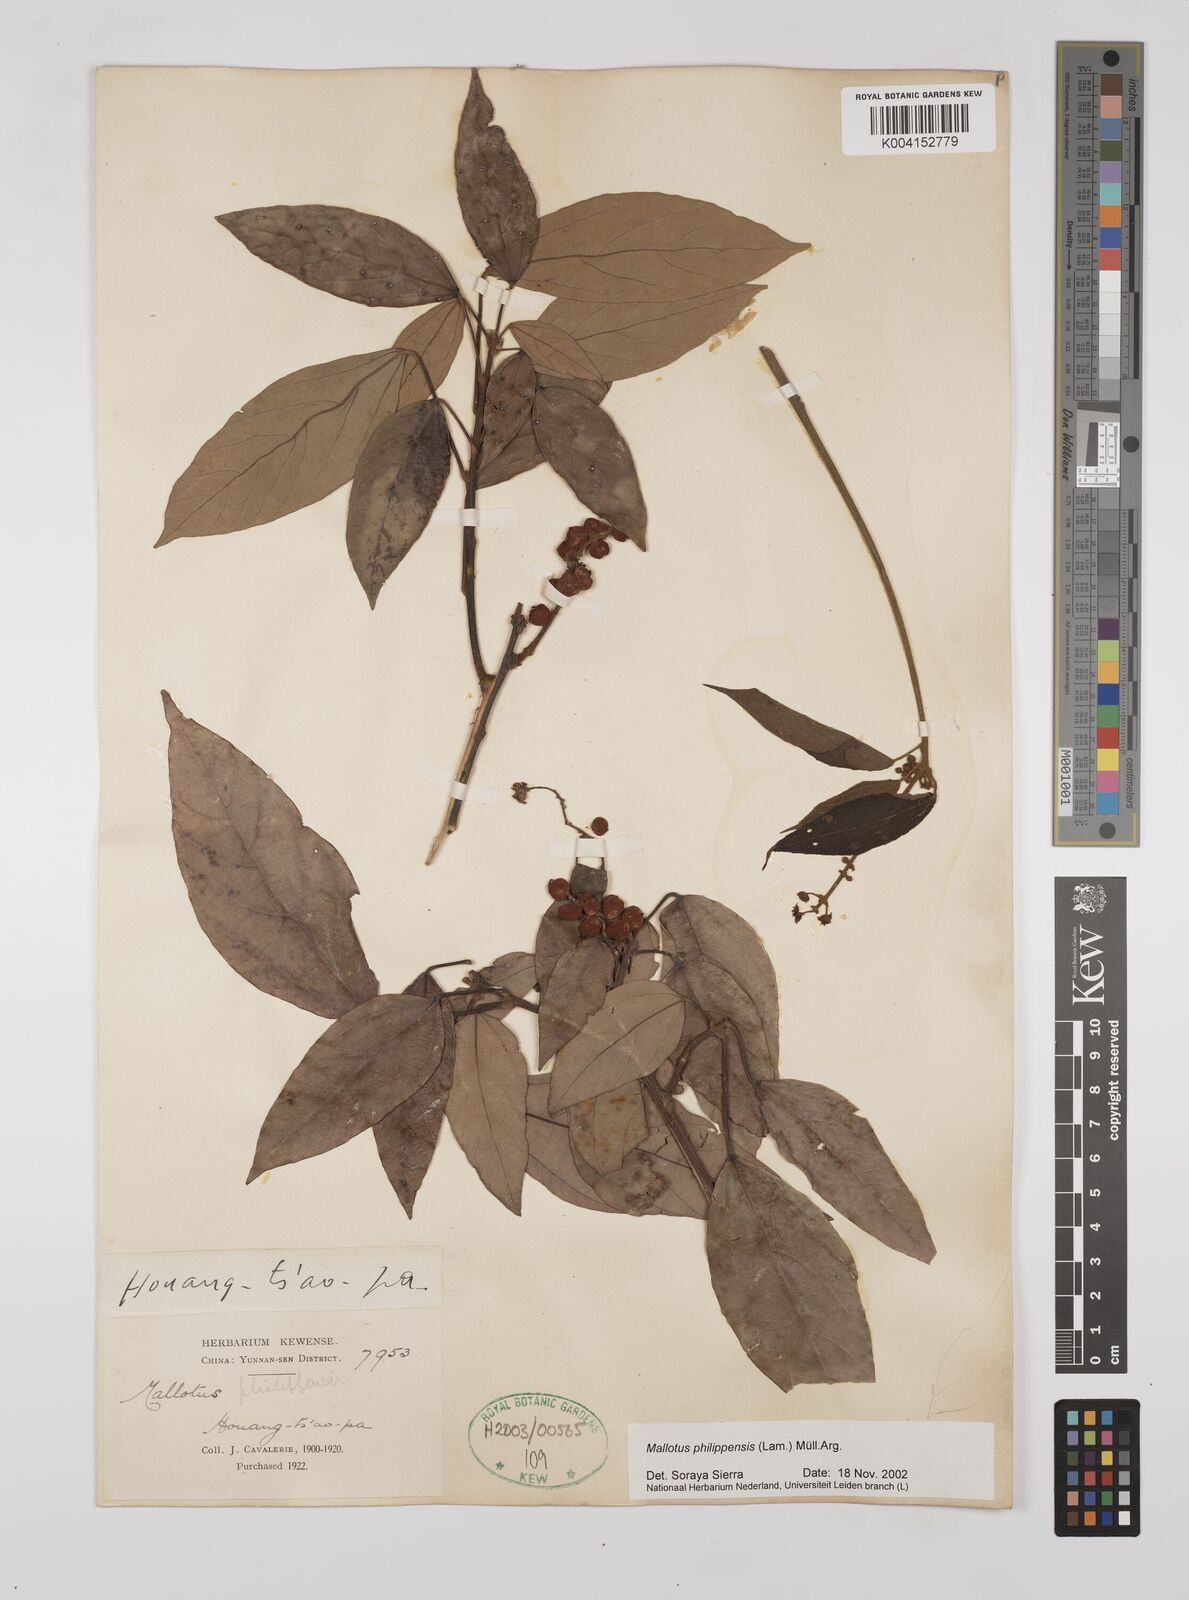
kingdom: Plantae
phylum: Tracheophyta
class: Magnoliopsida
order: Malpighiales
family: Euphorbiaceae
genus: Mallotus
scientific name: Mallotus philippensis
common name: Kamala tree
